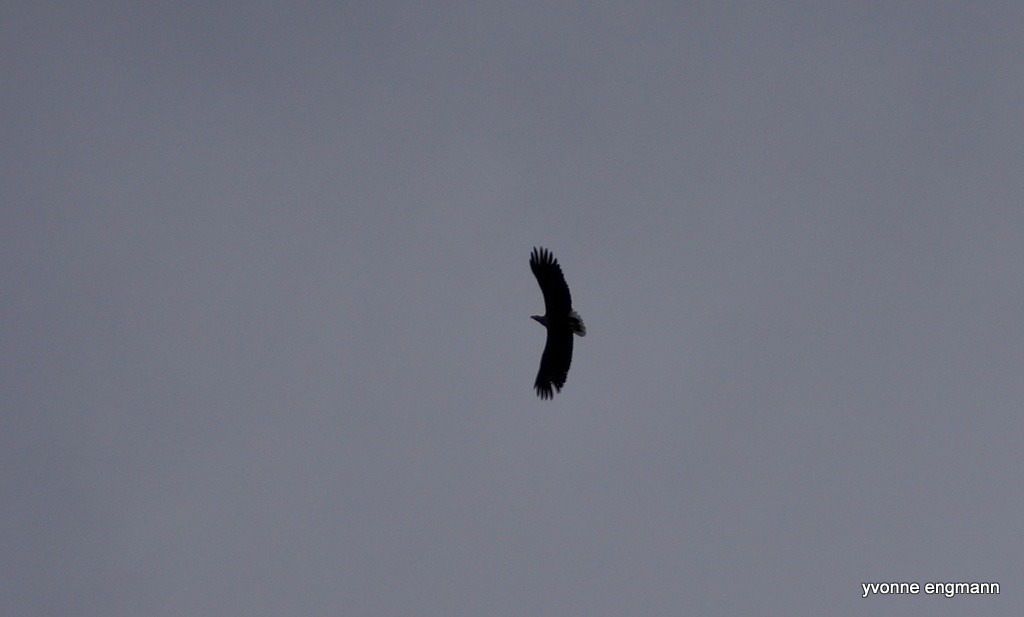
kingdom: Animalia
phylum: Chordata
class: Aves
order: Accipitriformes
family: Accipitridae
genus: Haliaeetus
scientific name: Haliaeetus albicilla
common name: Havørn
